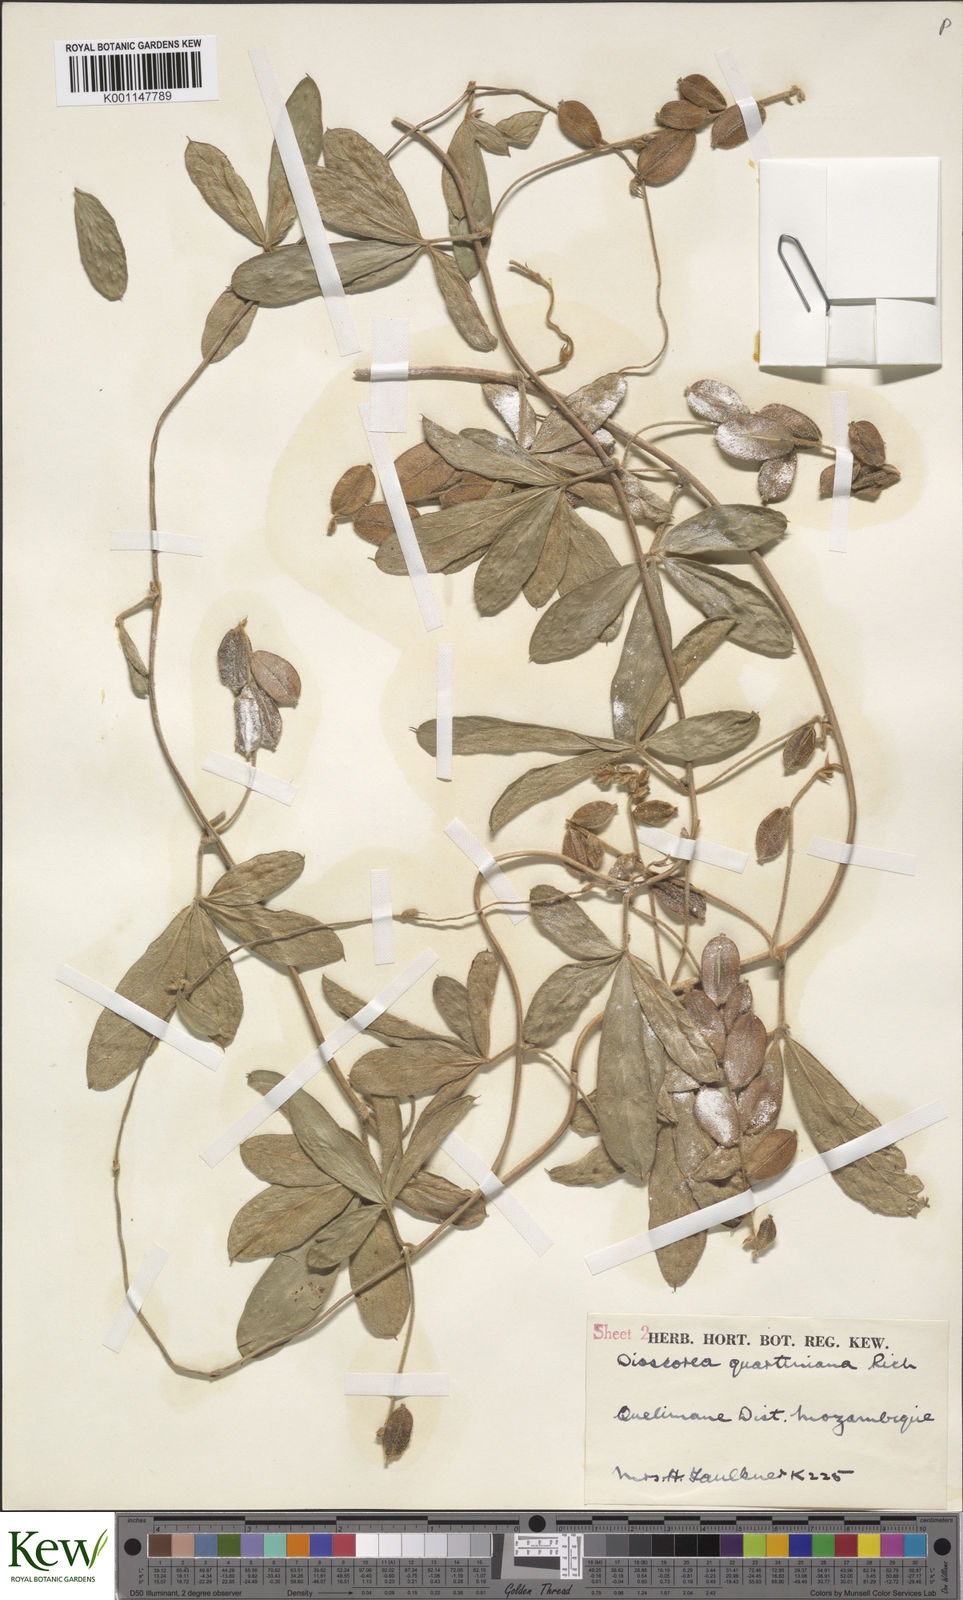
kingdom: Plantae
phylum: Tracheophyta
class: Liliopsida
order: Dioscoreales
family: Dioscoreaceae
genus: Dioscorea
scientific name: Dioscorea quartiniana
